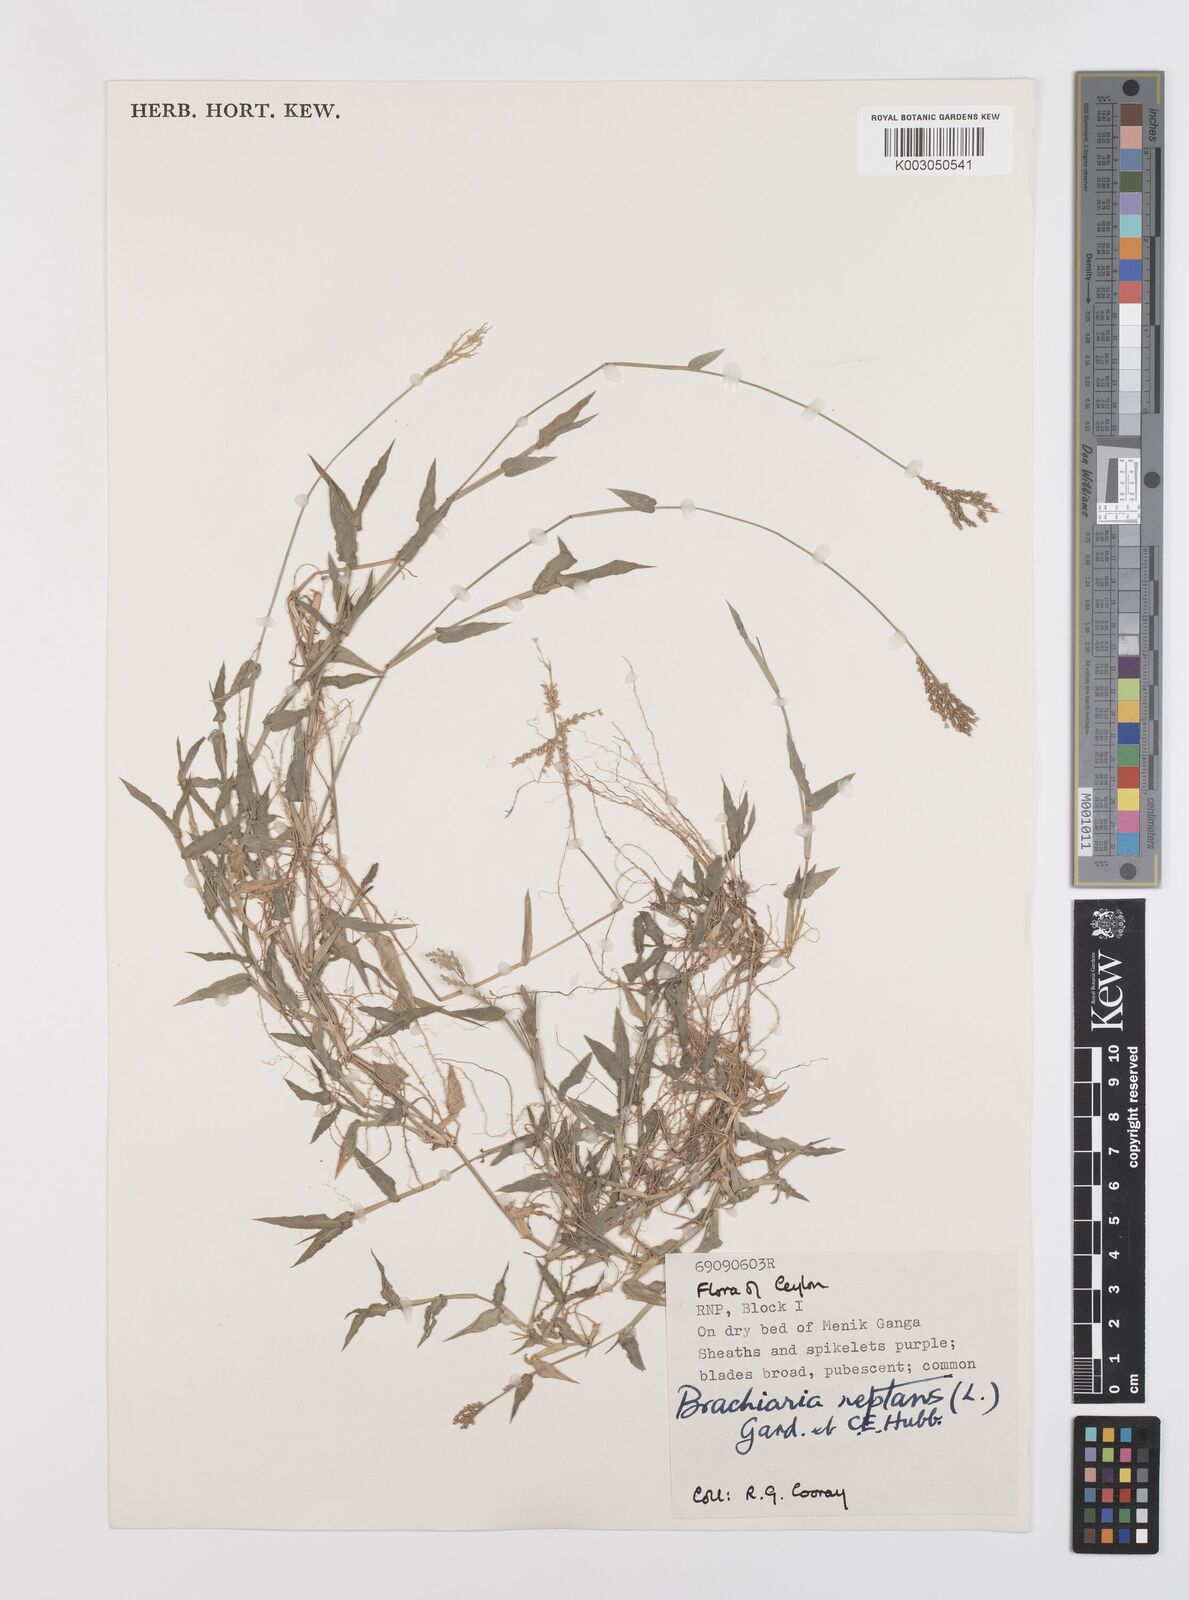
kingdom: Plantae
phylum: Tracheophyta
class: Liliopsida
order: Poales
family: Poaceae
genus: Urochloa
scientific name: Urochloa reptans
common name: Sprawling signalgrass
